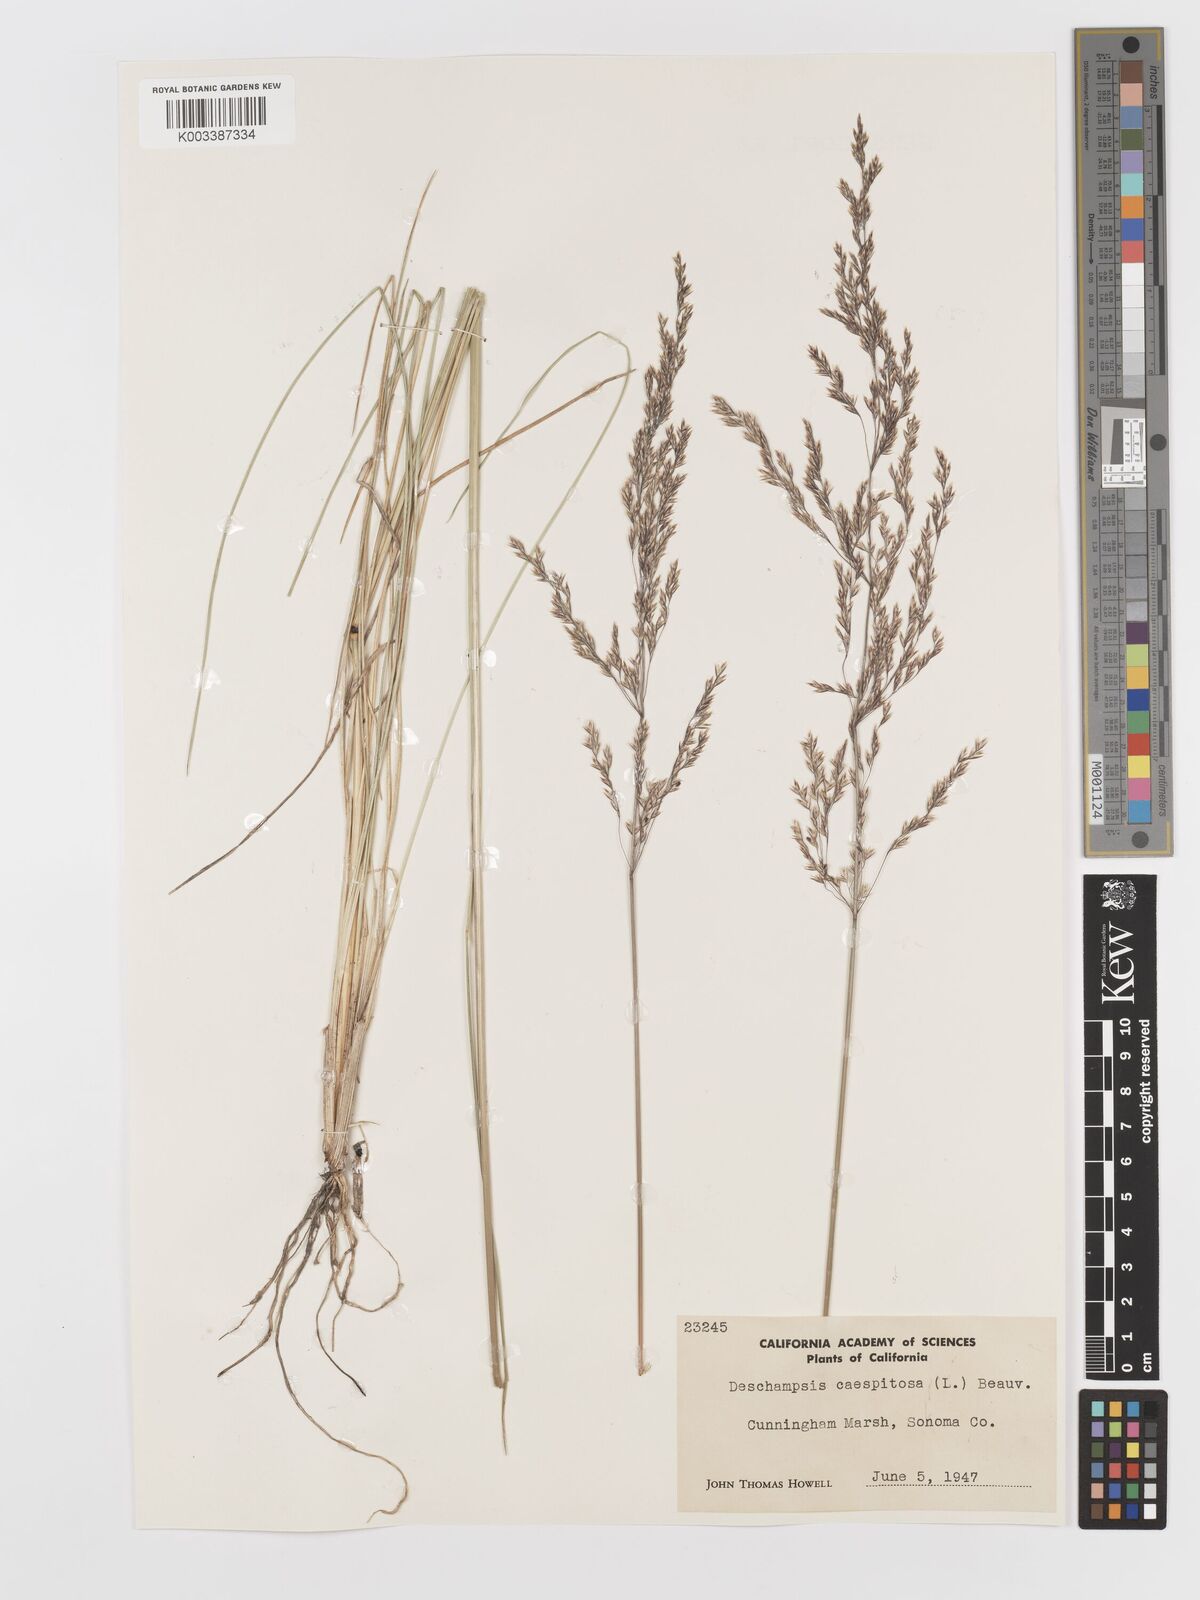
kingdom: Plantae
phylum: Tracheophyta
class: Liliopsida
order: Poales
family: Poaceae
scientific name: Poaceae
